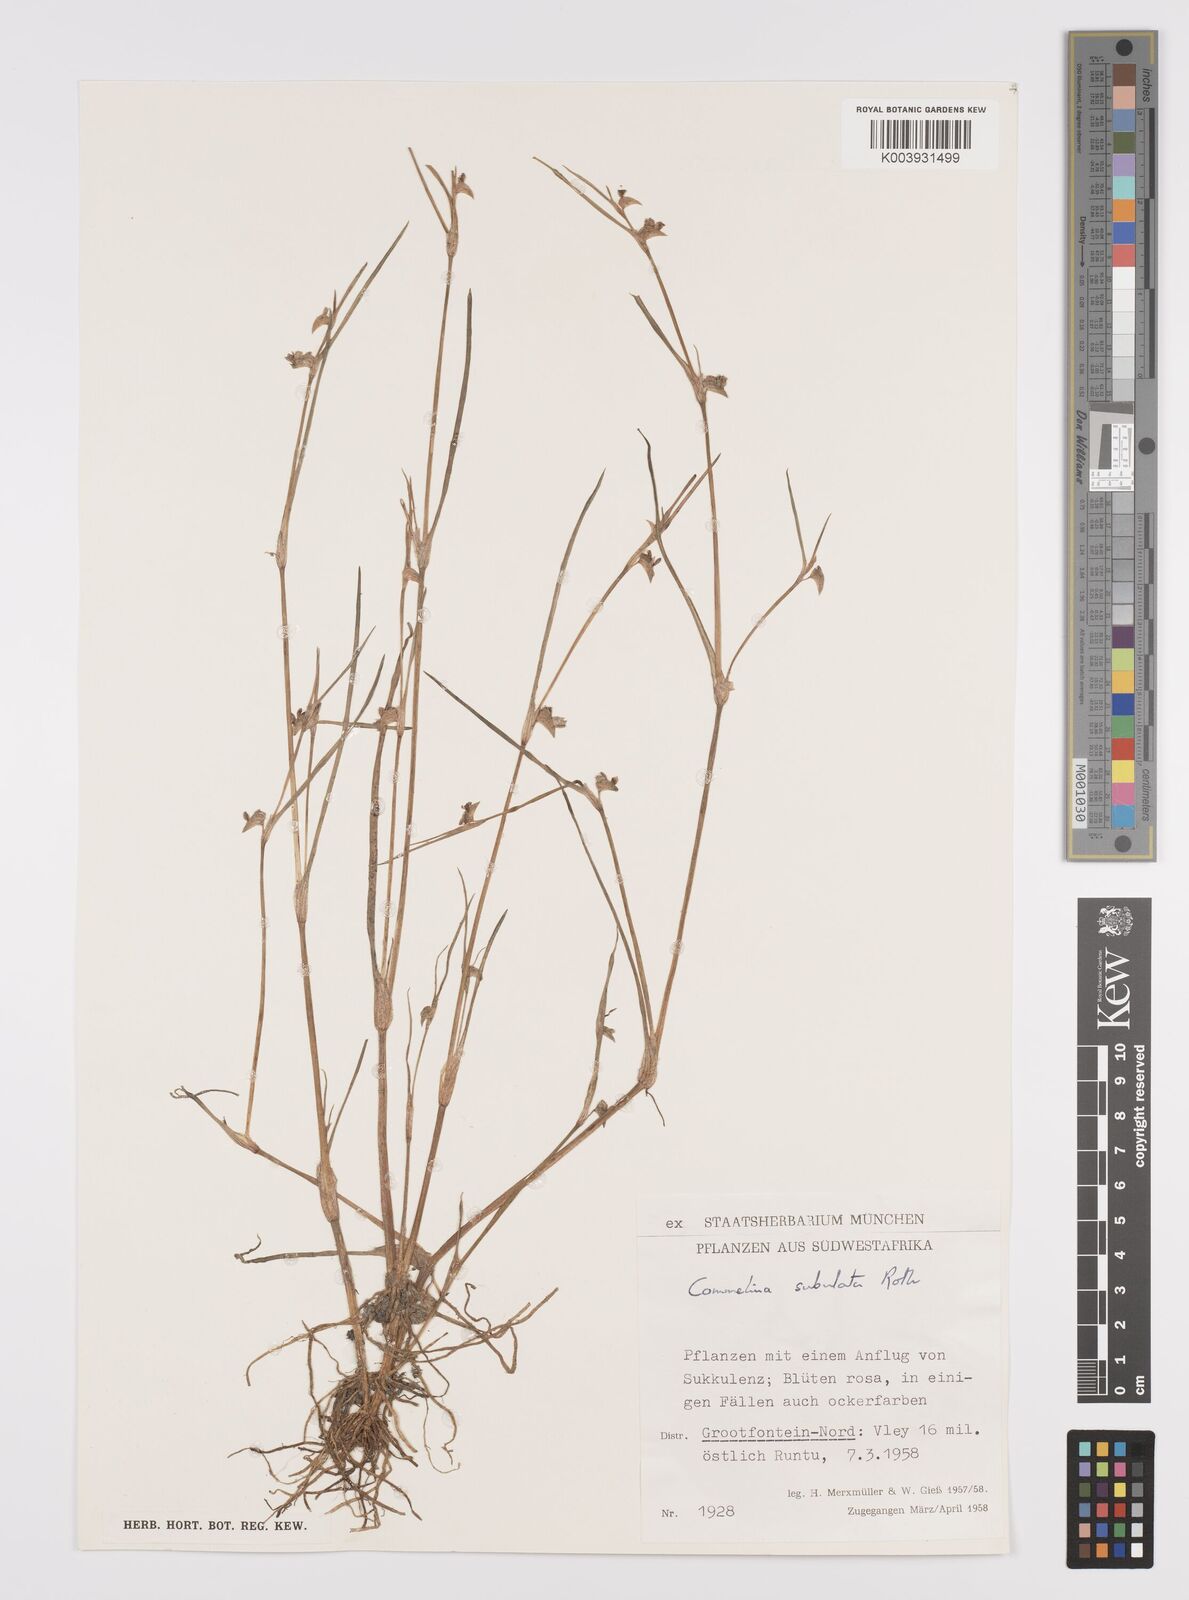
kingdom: Plantae
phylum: Tracheophyta
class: Liliopsida
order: Commelinales
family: Commelinaceae
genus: Commelina
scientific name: Commelina subulata
